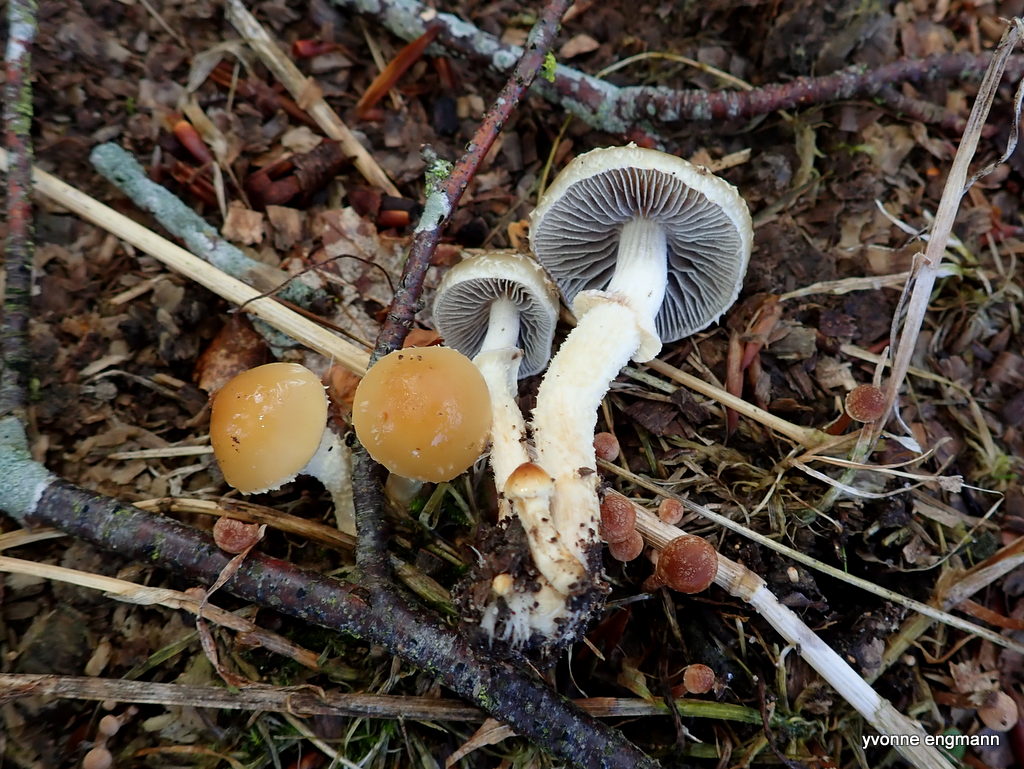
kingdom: Fungi
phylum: Basidiomycota
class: Agaricomycetes
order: Agaricales
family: Strophariaceae
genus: Leratiomyces
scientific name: Leratiomyces squamosus
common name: skællet bredblad
